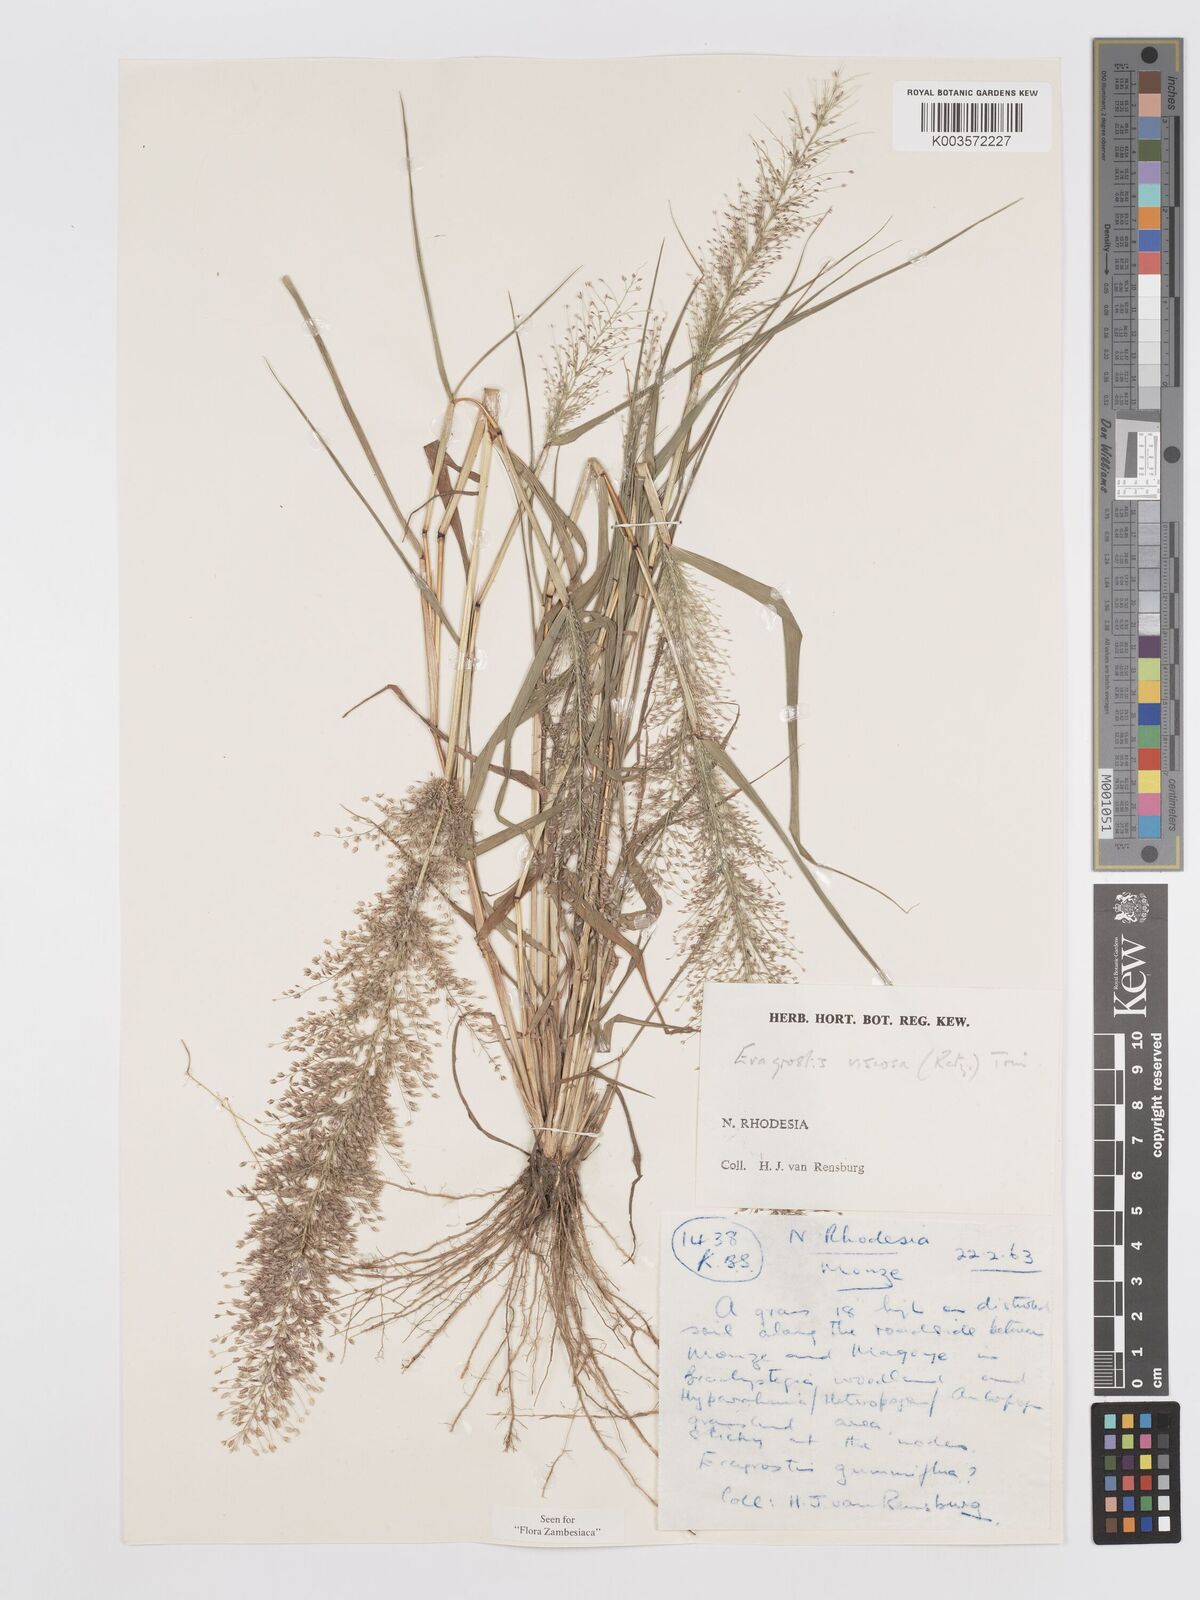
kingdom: Plantae
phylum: Tracheophyta
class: Liliopsida
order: Poales
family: Poaceae
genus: Eragrostis
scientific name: Eragrostis
